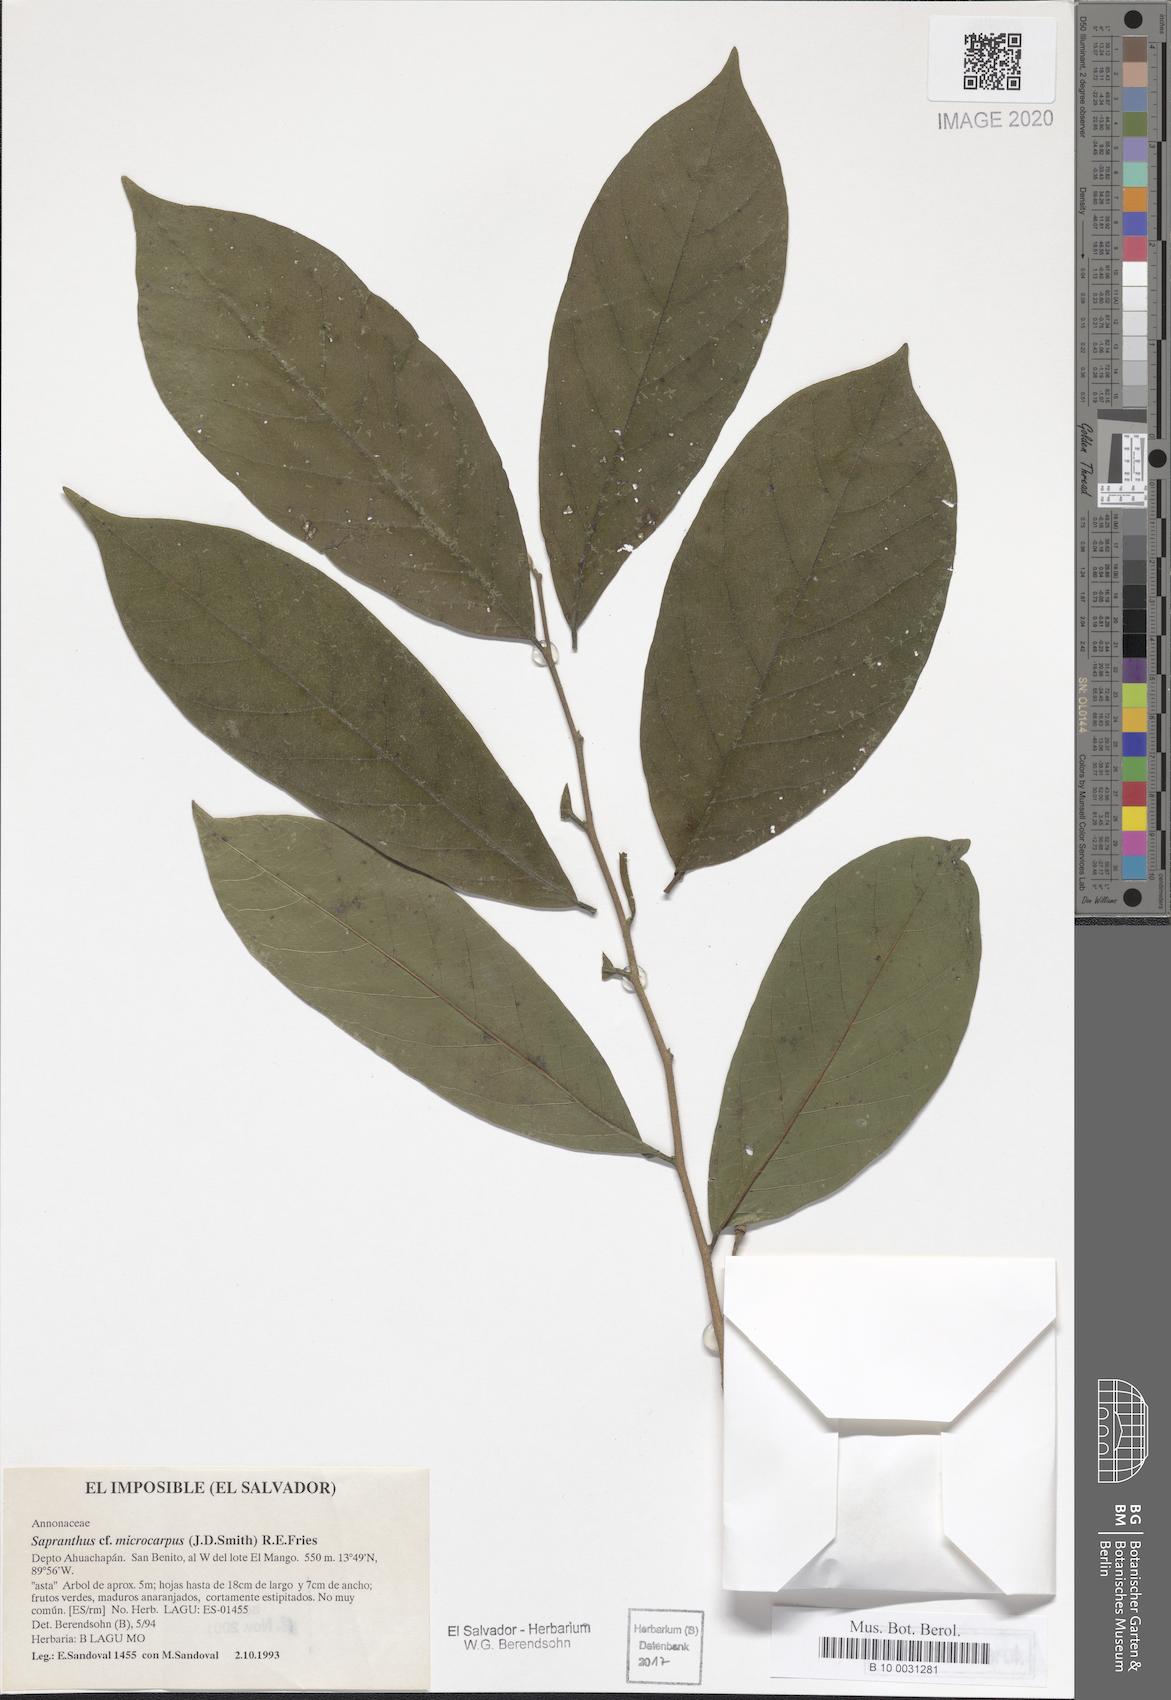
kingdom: Plantae
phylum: Tracheophyta
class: Magnoliopsida
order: Magnoliales
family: Annonaceae
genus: Sapranthus
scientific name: Sapranthus microcarpus
